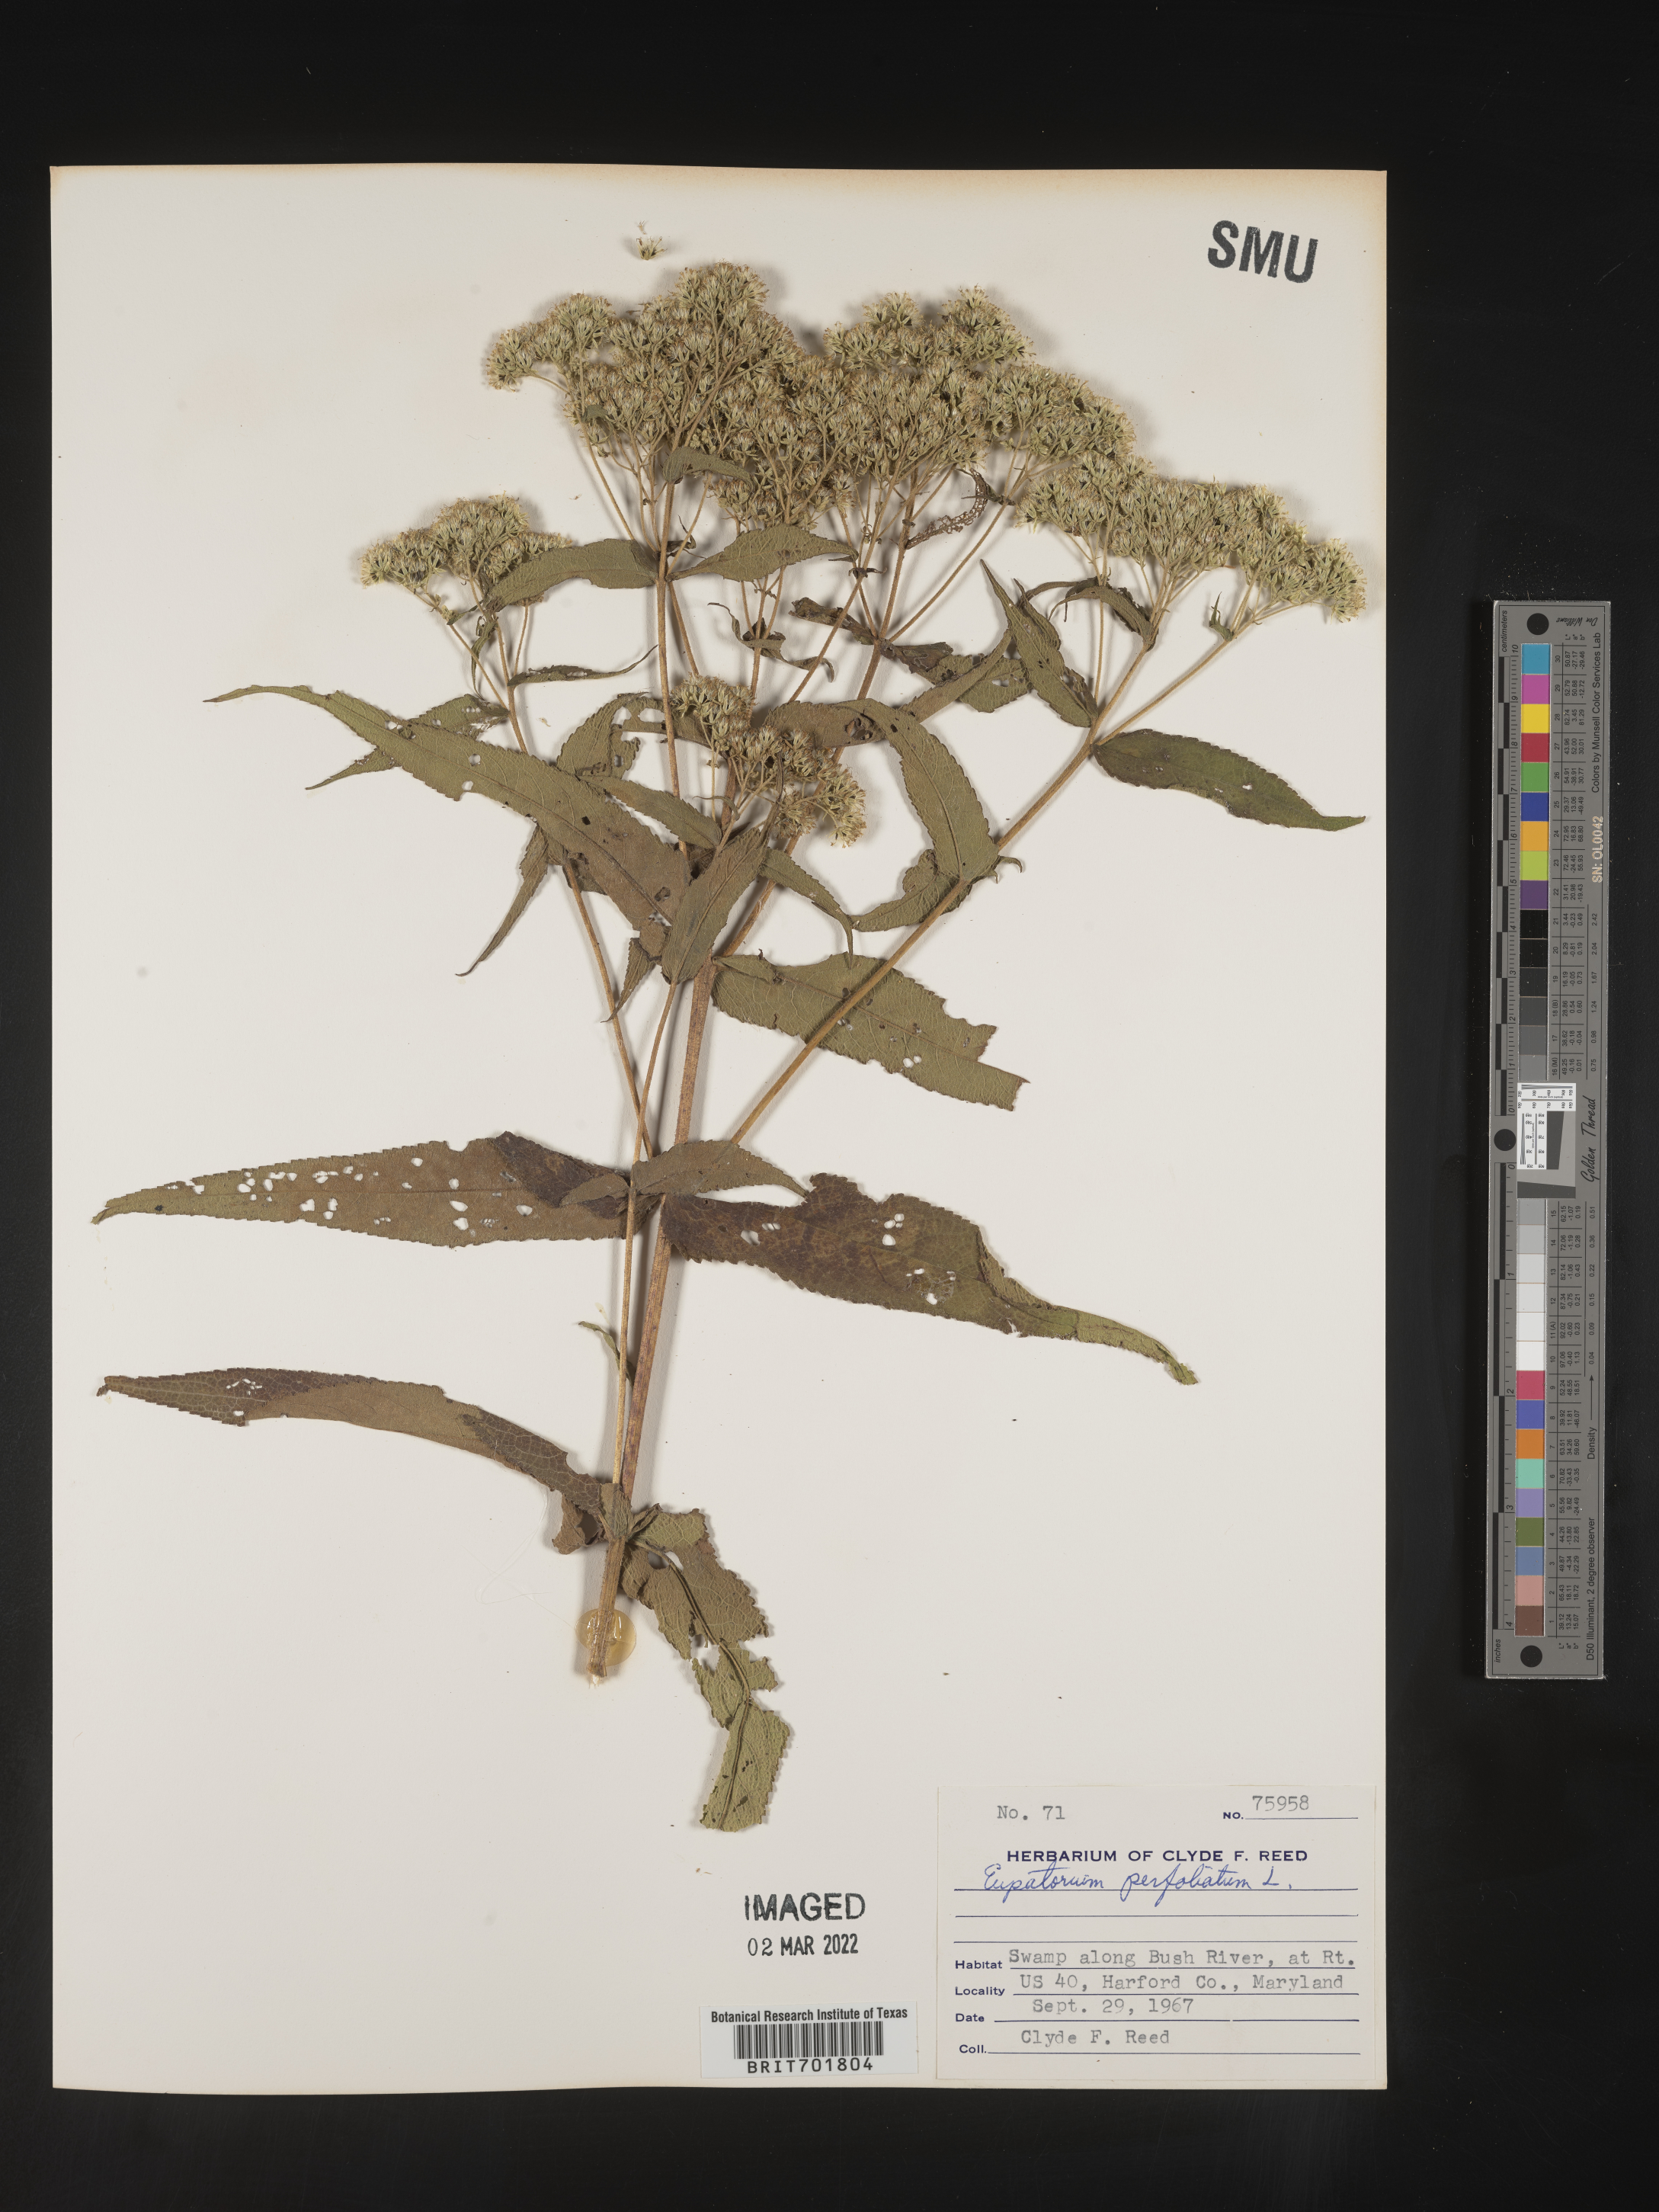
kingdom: Plantae
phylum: Tracheophyta
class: Magnoliopsida
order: Asterales
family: Asteraceae
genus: Eupatorium
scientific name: Eupatorium perfoliatum
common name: Boneset
